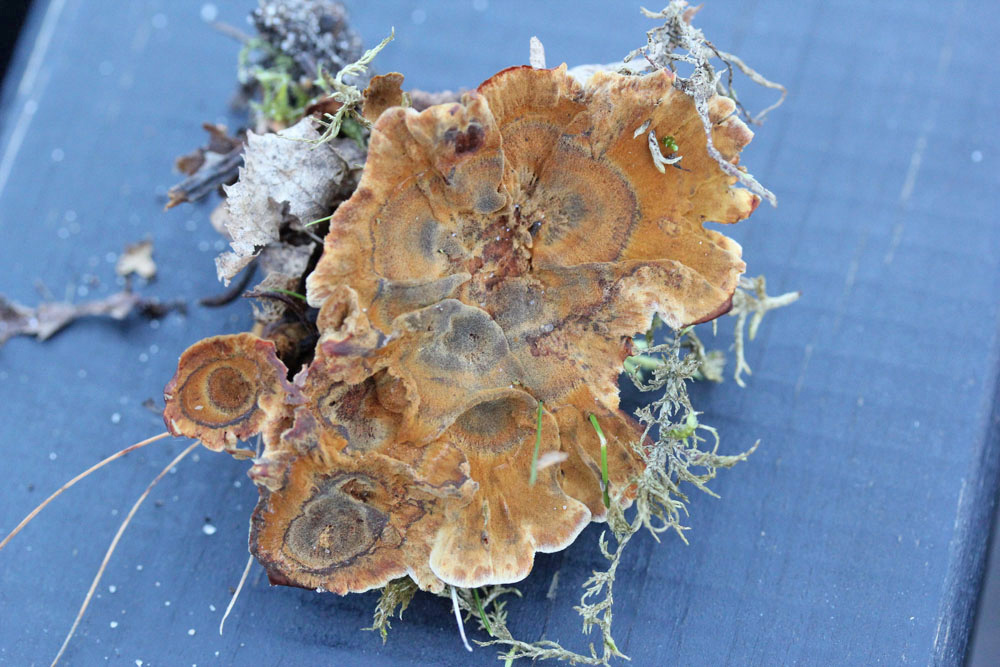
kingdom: Fungi
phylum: Basidiomycota
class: Agaricomycetes
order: Hymenochaetales
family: Hymenochaetaceae
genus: Coltricia
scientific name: Coltricia perennis
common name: almindelig sandporesvamp
